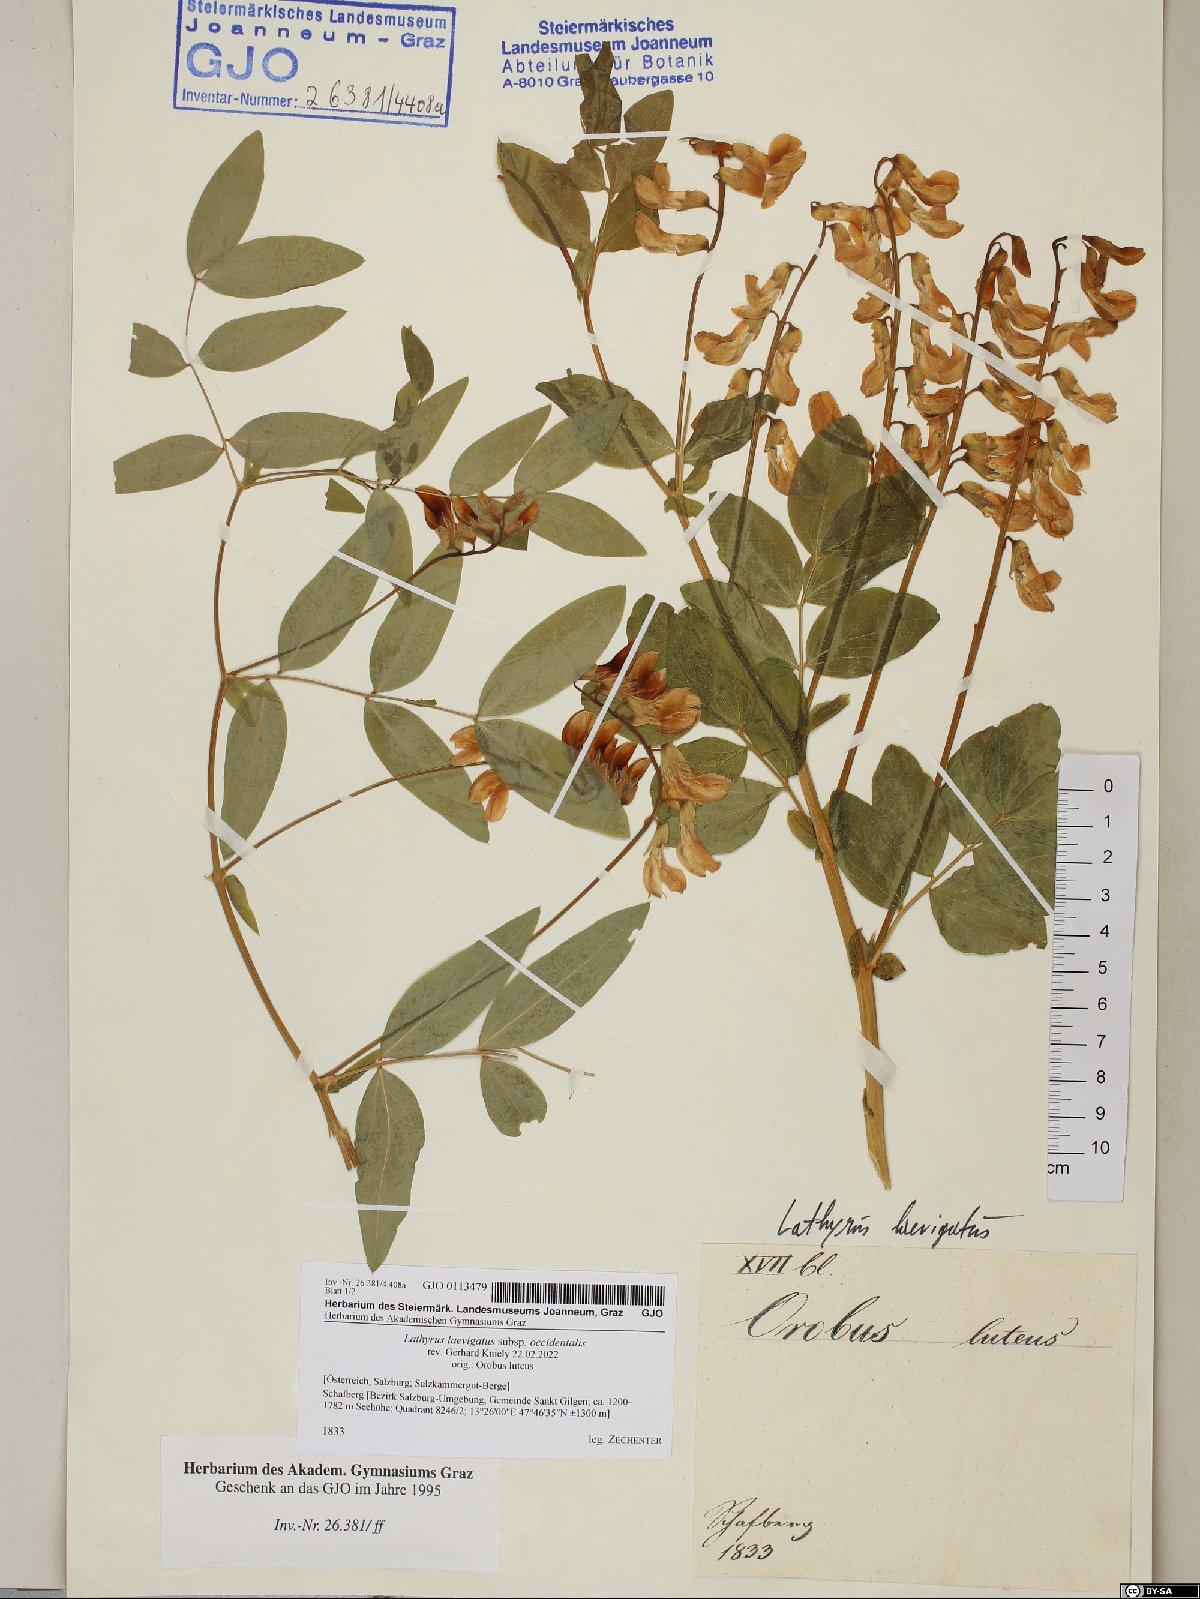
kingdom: Plantae
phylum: Tracheophyta
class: Magnoliopsida
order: Fabales
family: Fabaceae
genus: Lathyrus
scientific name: Lathyrus laevigatus
